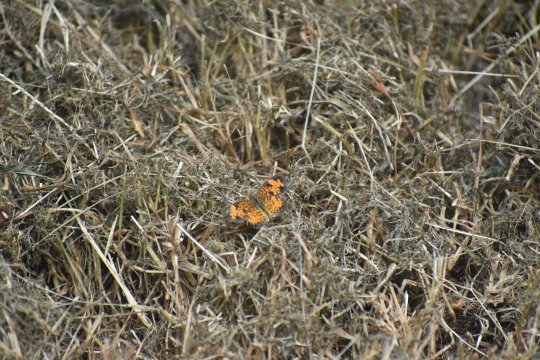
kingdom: Animalia
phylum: Arthropoda
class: Insecta
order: Lepidoptera
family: Nymphalidae
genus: Phyciodes
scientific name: Phyciodes tharos
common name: Pearl Crescent
